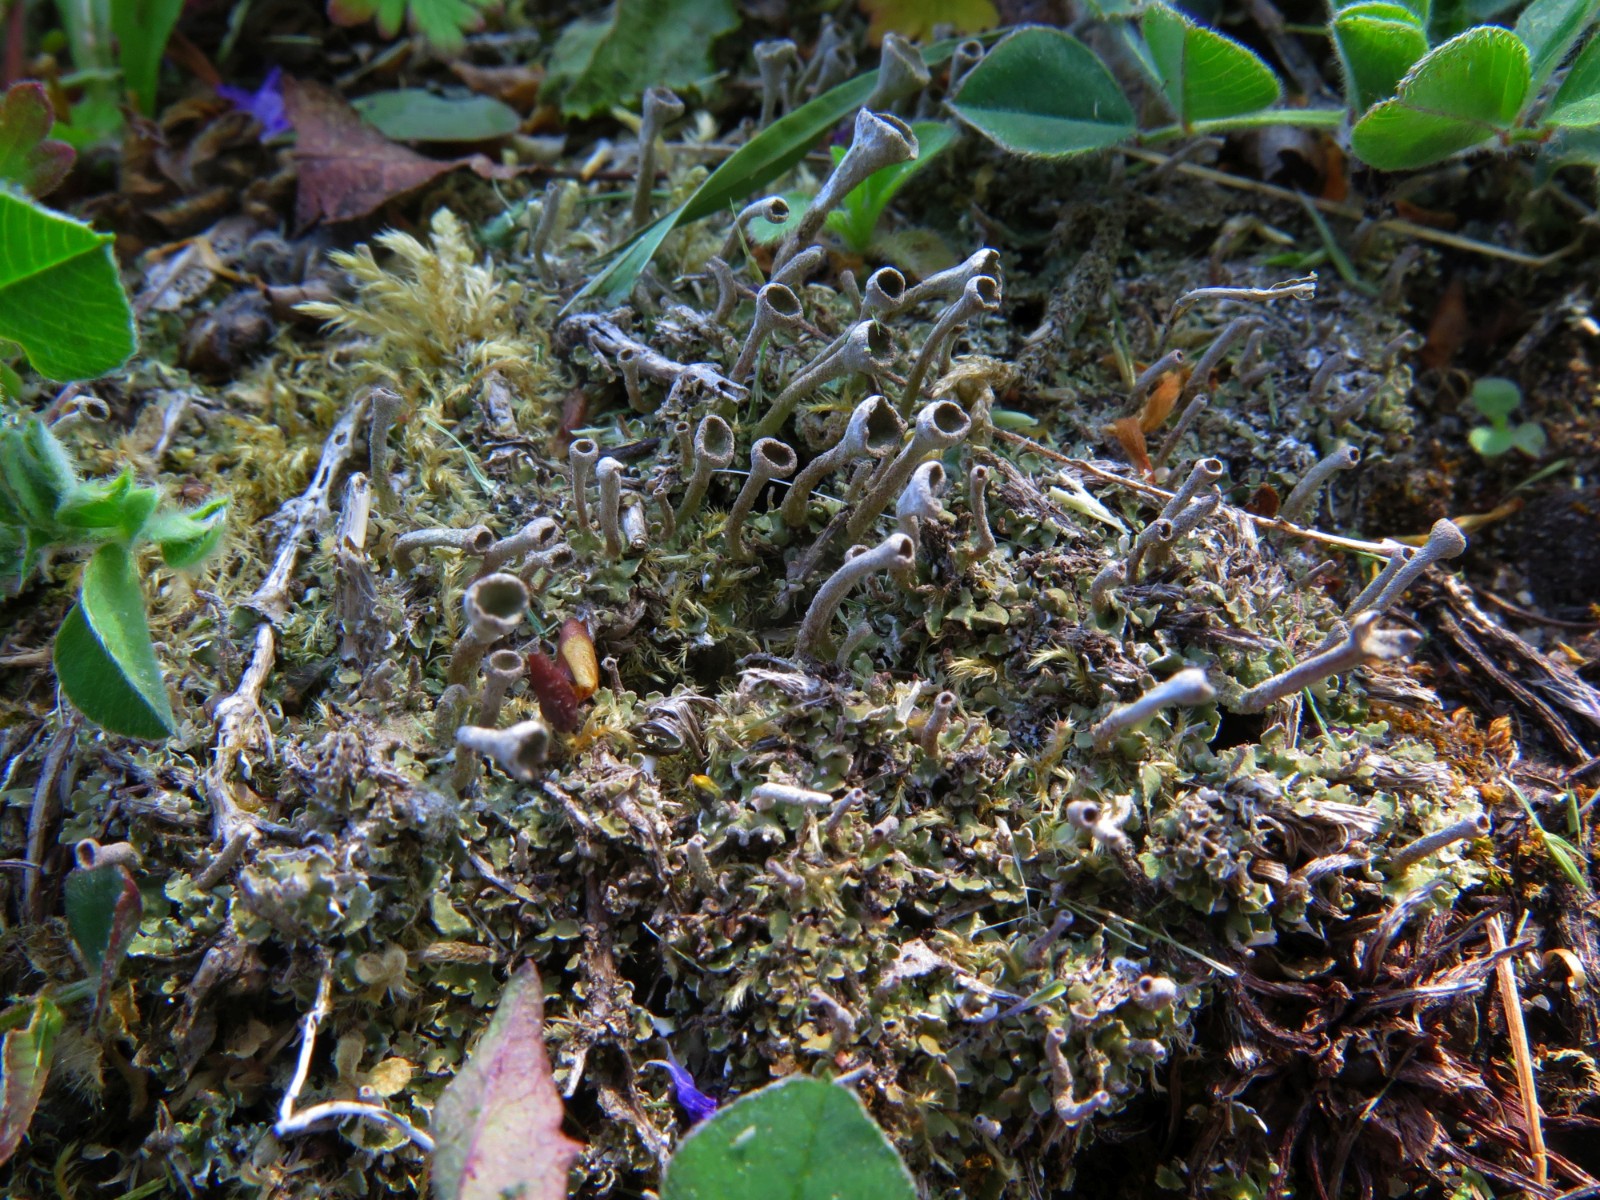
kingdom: Fungi
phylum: Ascomycota
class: Lecanoromycetes
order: Lecanorales
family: Cladoniaceae
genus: Cladonia
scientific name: Cladonia
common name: brungrøn bægerlav
